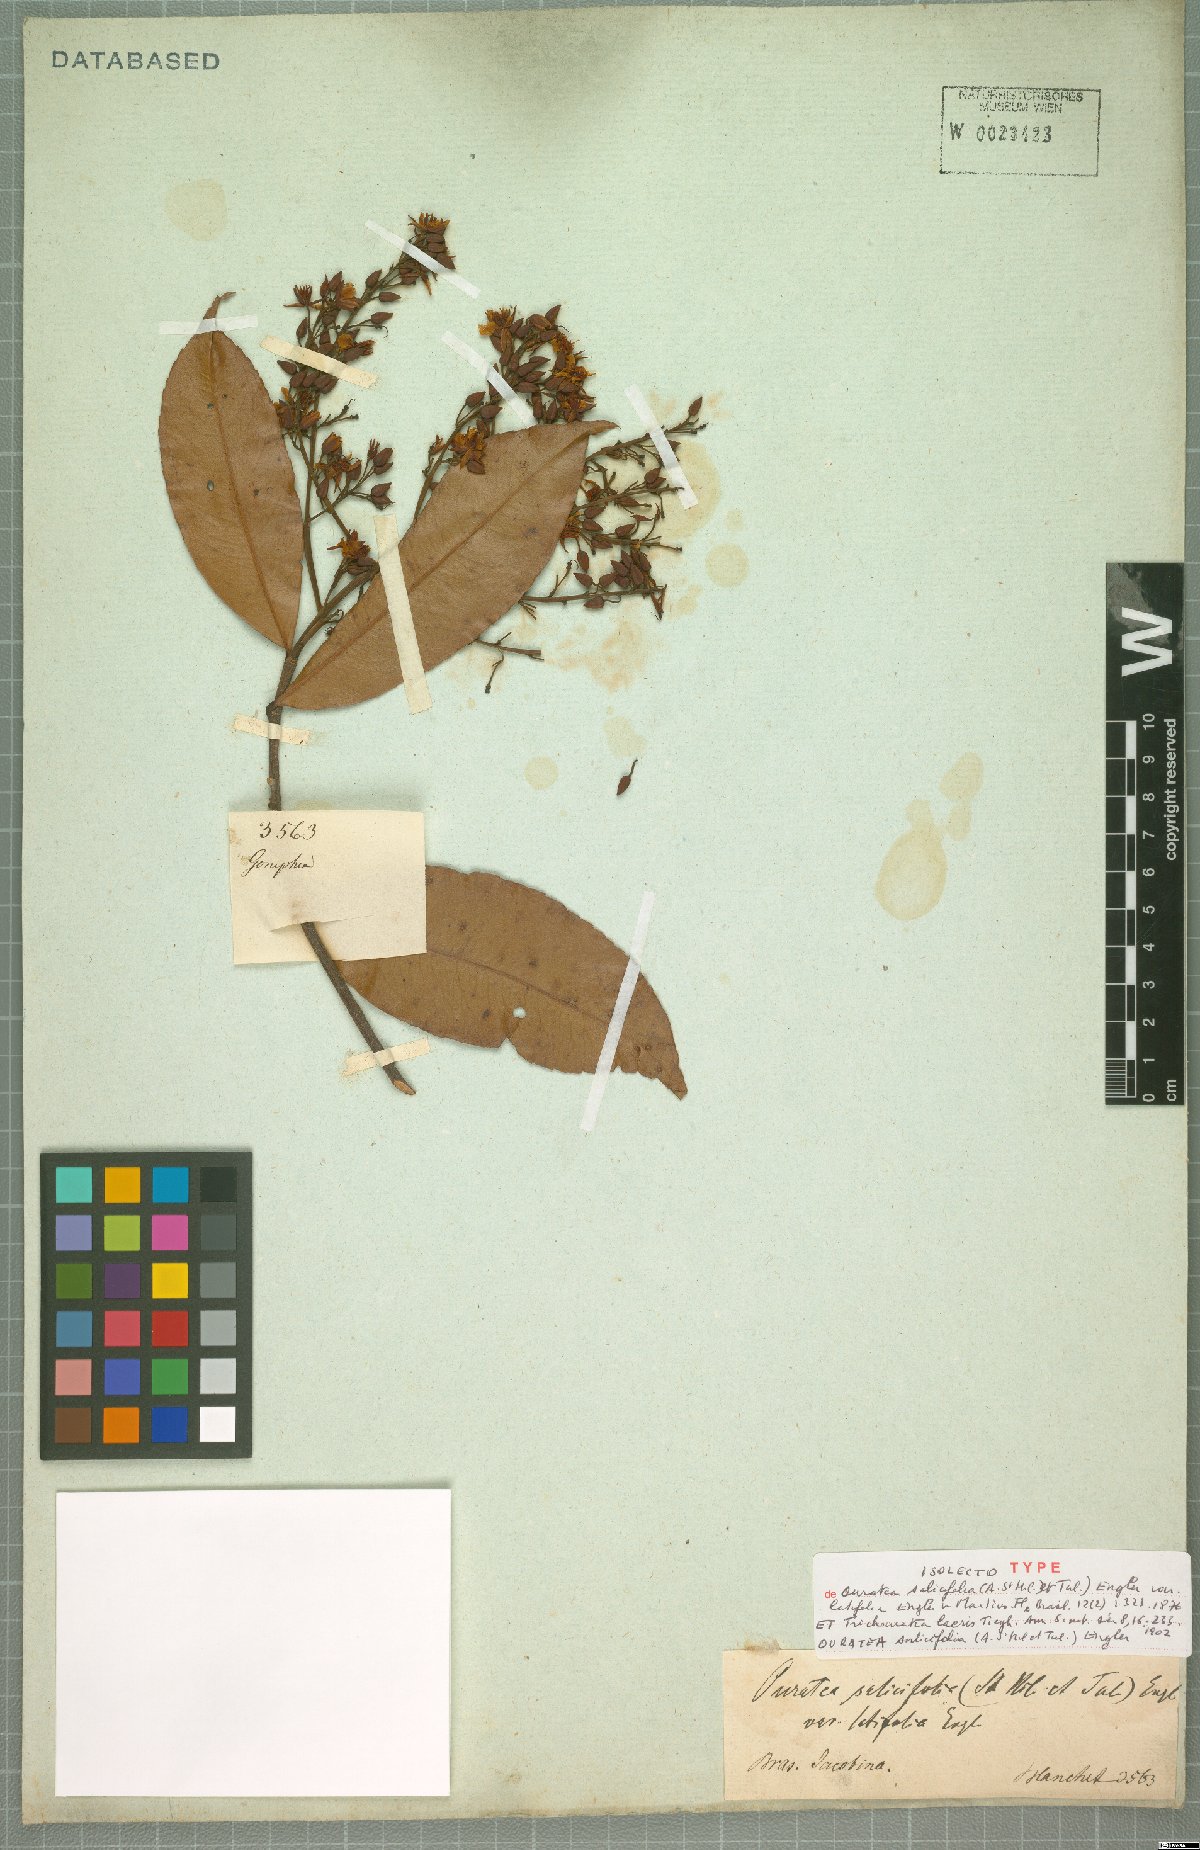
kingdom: Plantae
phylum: Tracheophyta
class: Magnoliopsida
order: Malpighiales
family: Ochnaceae
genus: Ouratea
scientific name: Ouratea salicifolia
